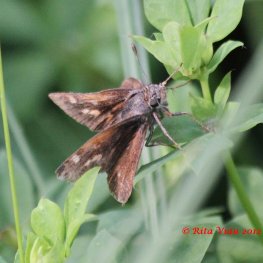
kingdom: Animalia
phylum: Arthropoda
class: Insecta
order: Lepidoptera
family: Hesperiidae
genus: Polites
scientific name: Polites themistocles
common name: Tawny-edged Skipper
